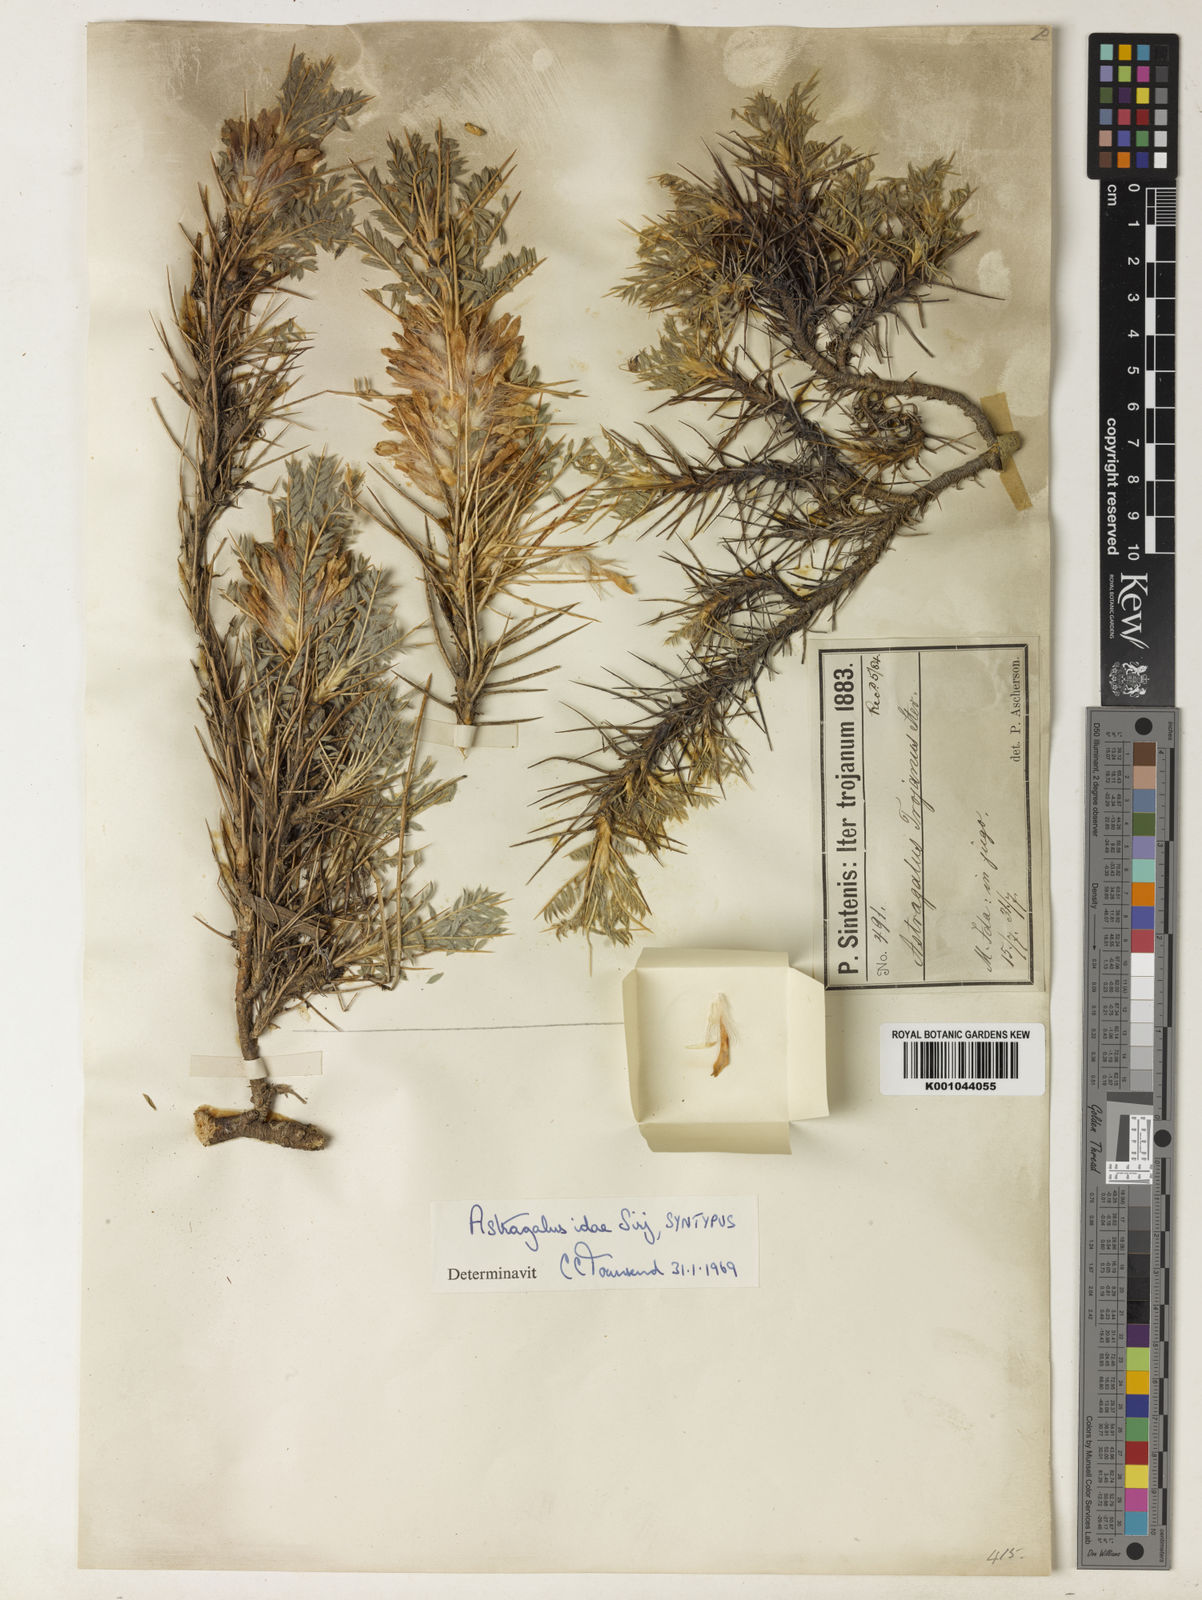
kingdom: Plantae
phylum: Tracheophyta
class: Magnoliopsida
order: Fabales
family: Fabaceae
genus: Astragalus
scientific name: Astragalus
